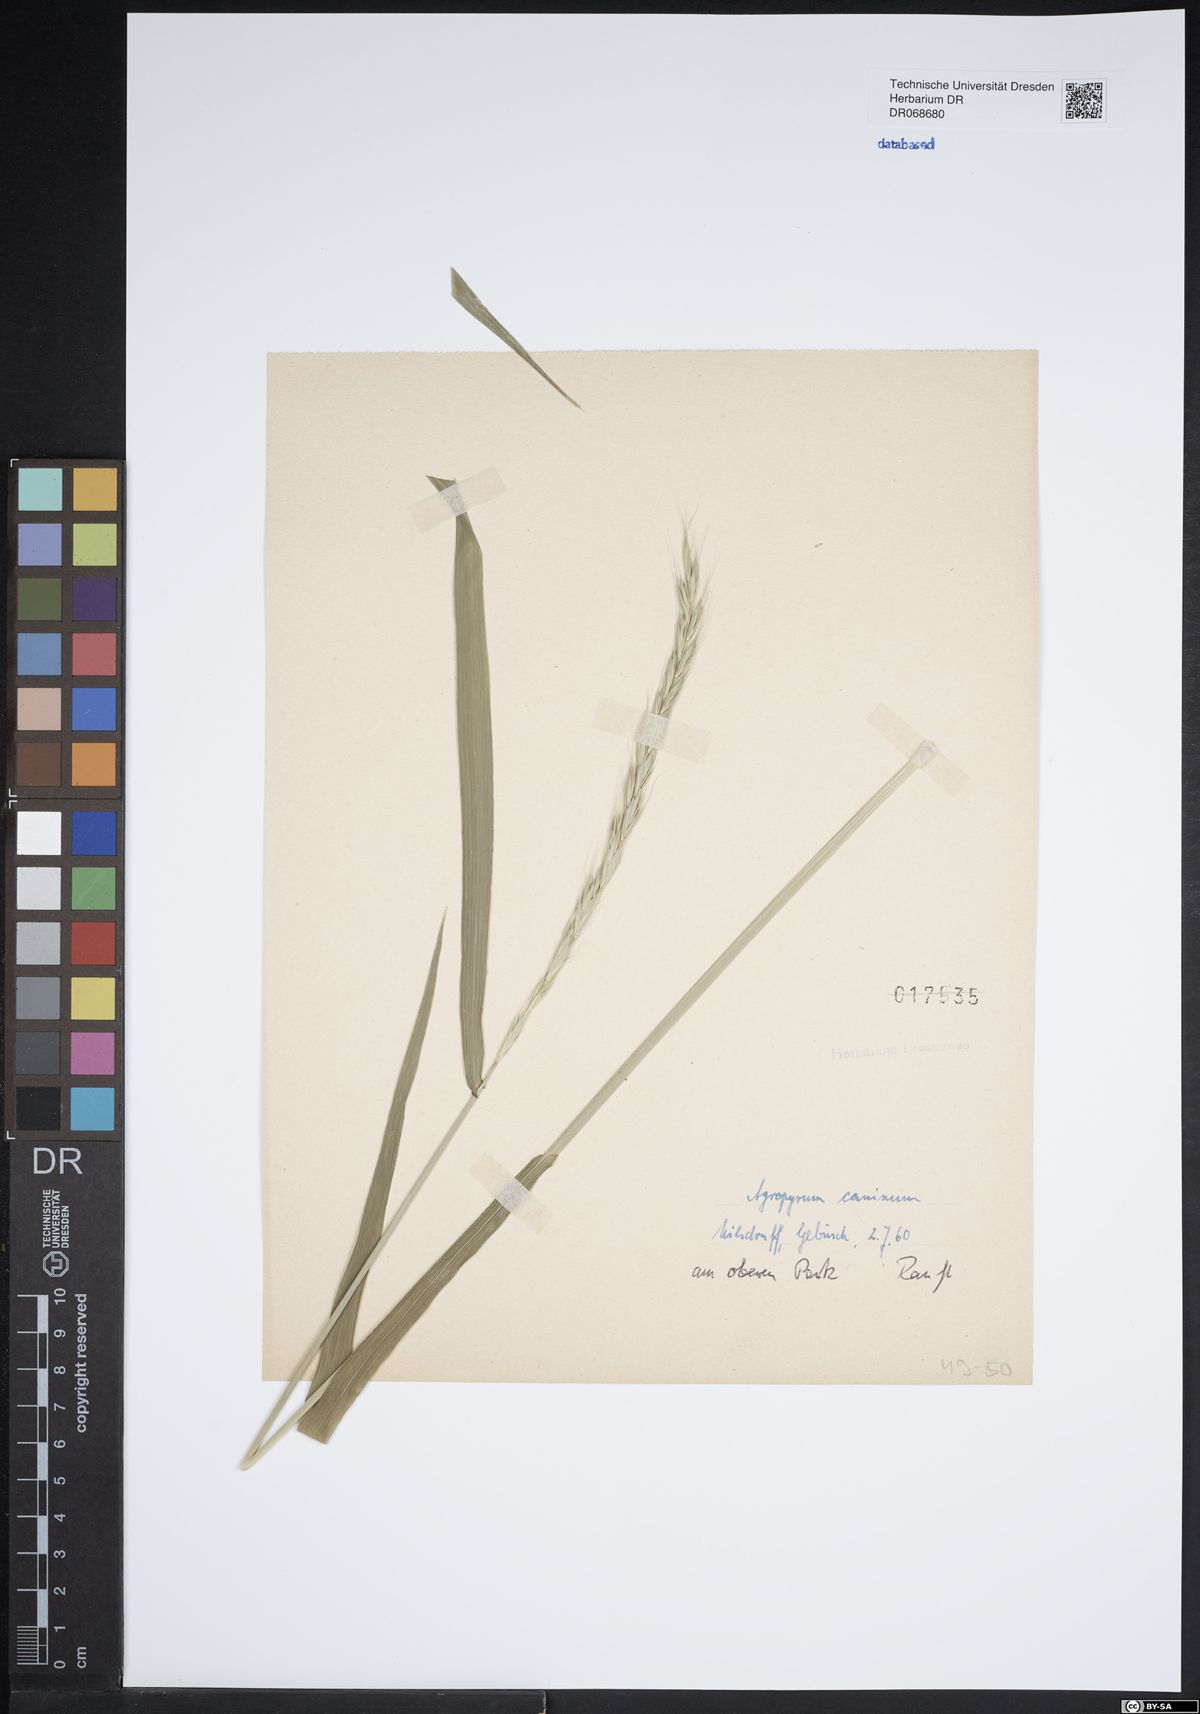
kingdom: Plantae
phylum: Tracheophyta
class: Liliopsida
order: Poales
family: Poaceae
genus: Elymus
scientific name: Elymus caninus
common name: Bearded couch
